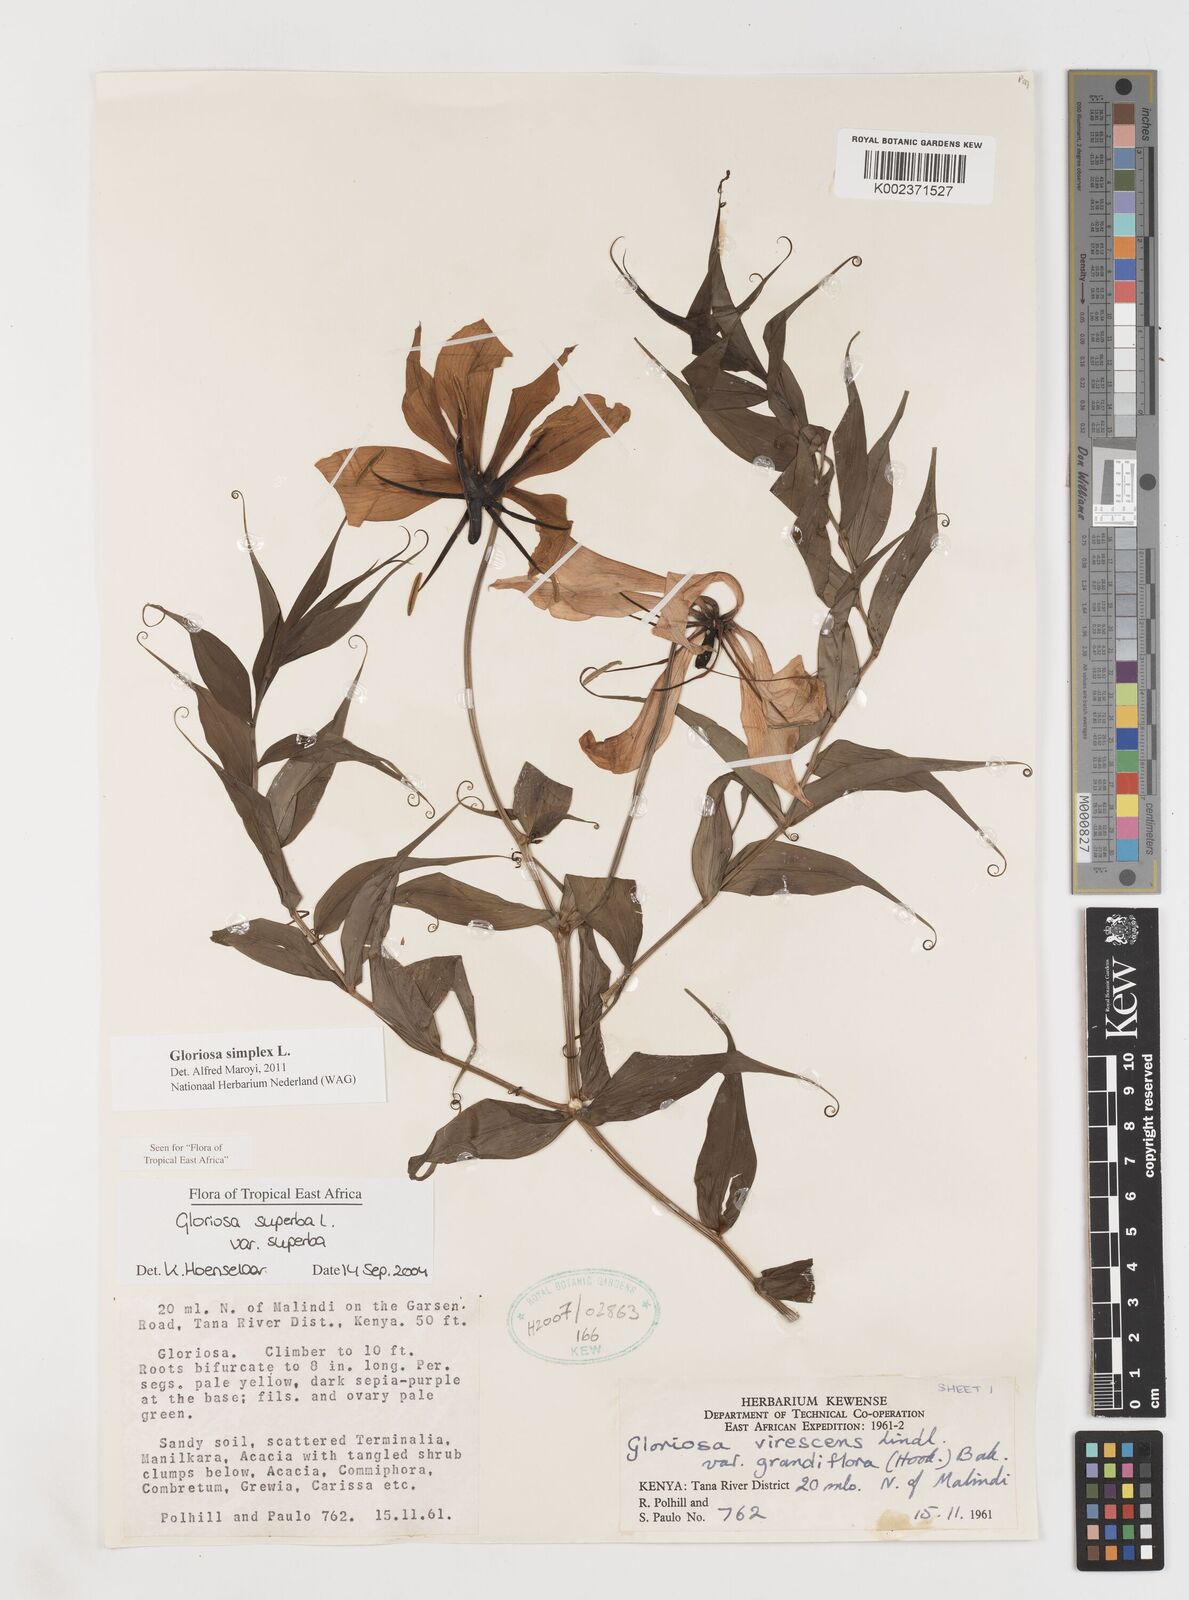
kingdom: Plantae
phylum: Tracheophyta
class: Liliopsida
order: Liliales
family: Colchicaceae
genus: Gloriosa
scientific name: Gloriosa simplex
